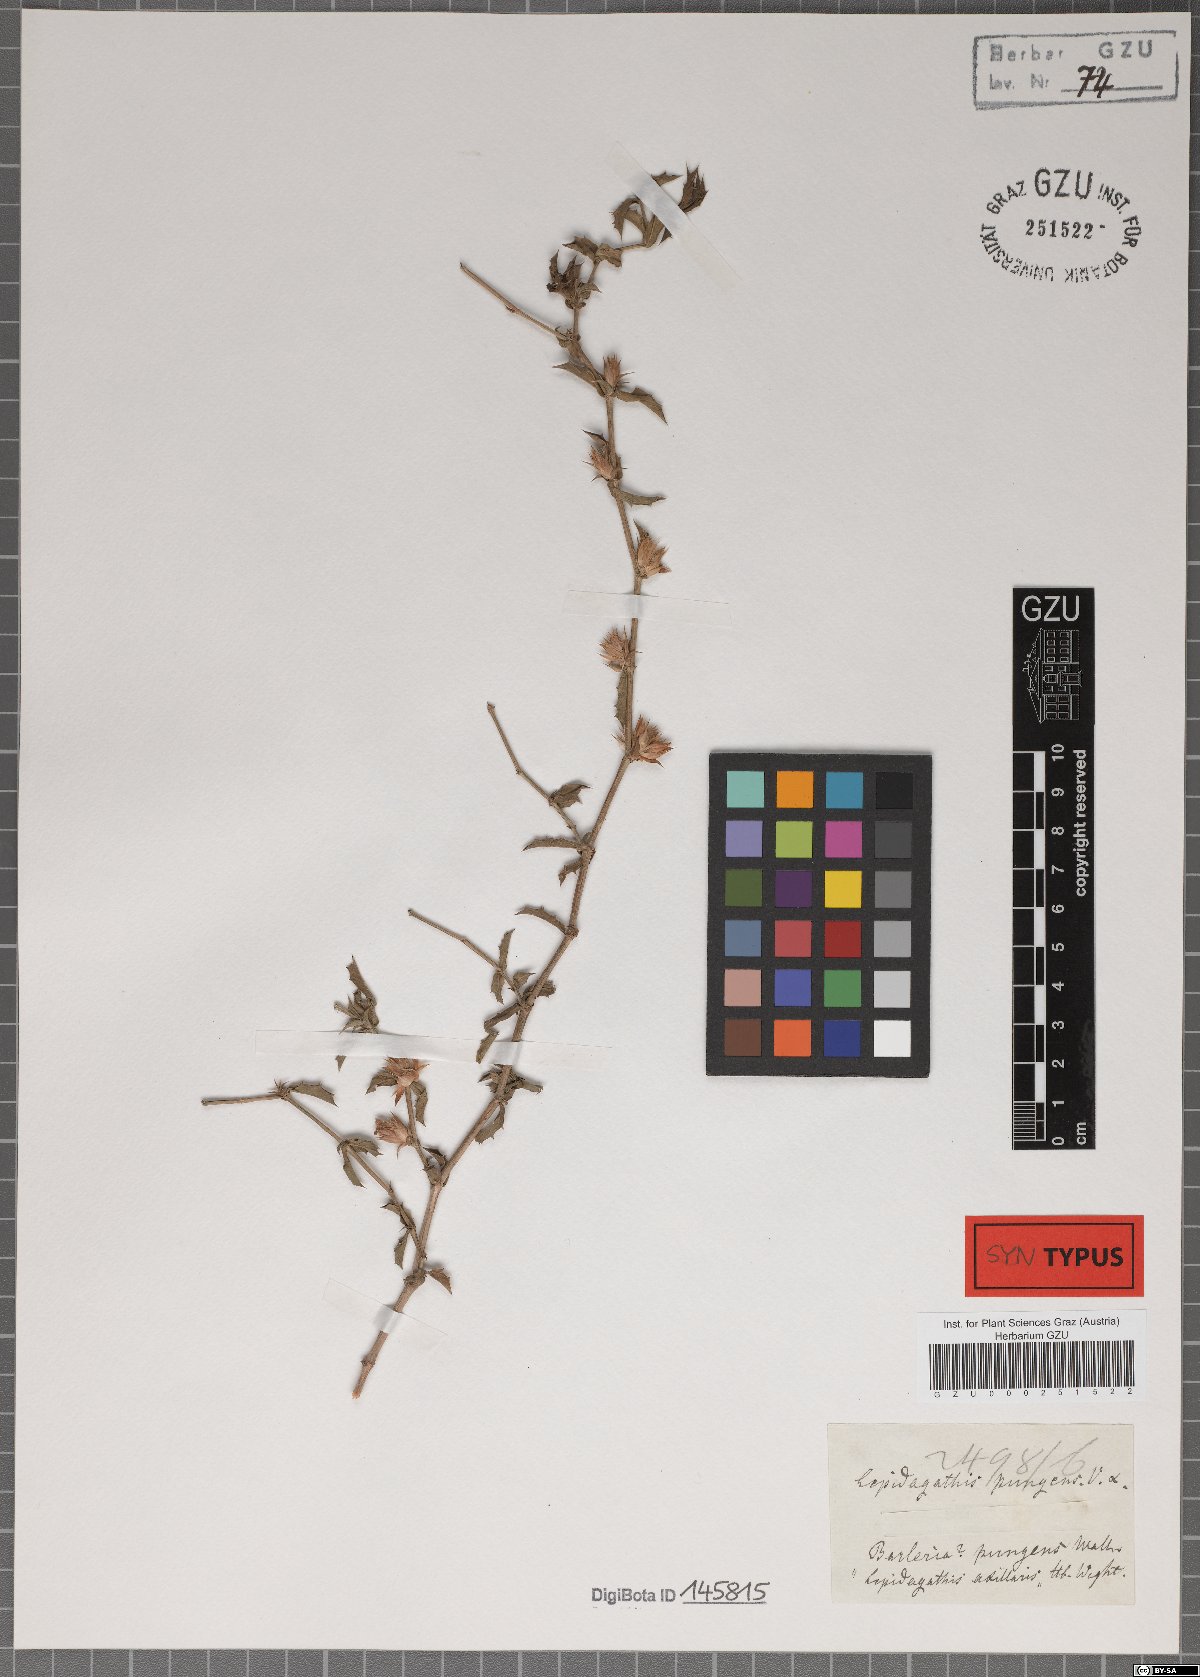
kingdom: Plantae
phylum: Tracheophyta
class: Magnoliopsida
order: Lamiales
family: Acanthaceae
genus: Lepidagathis
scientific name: Lepidagathis pungens
